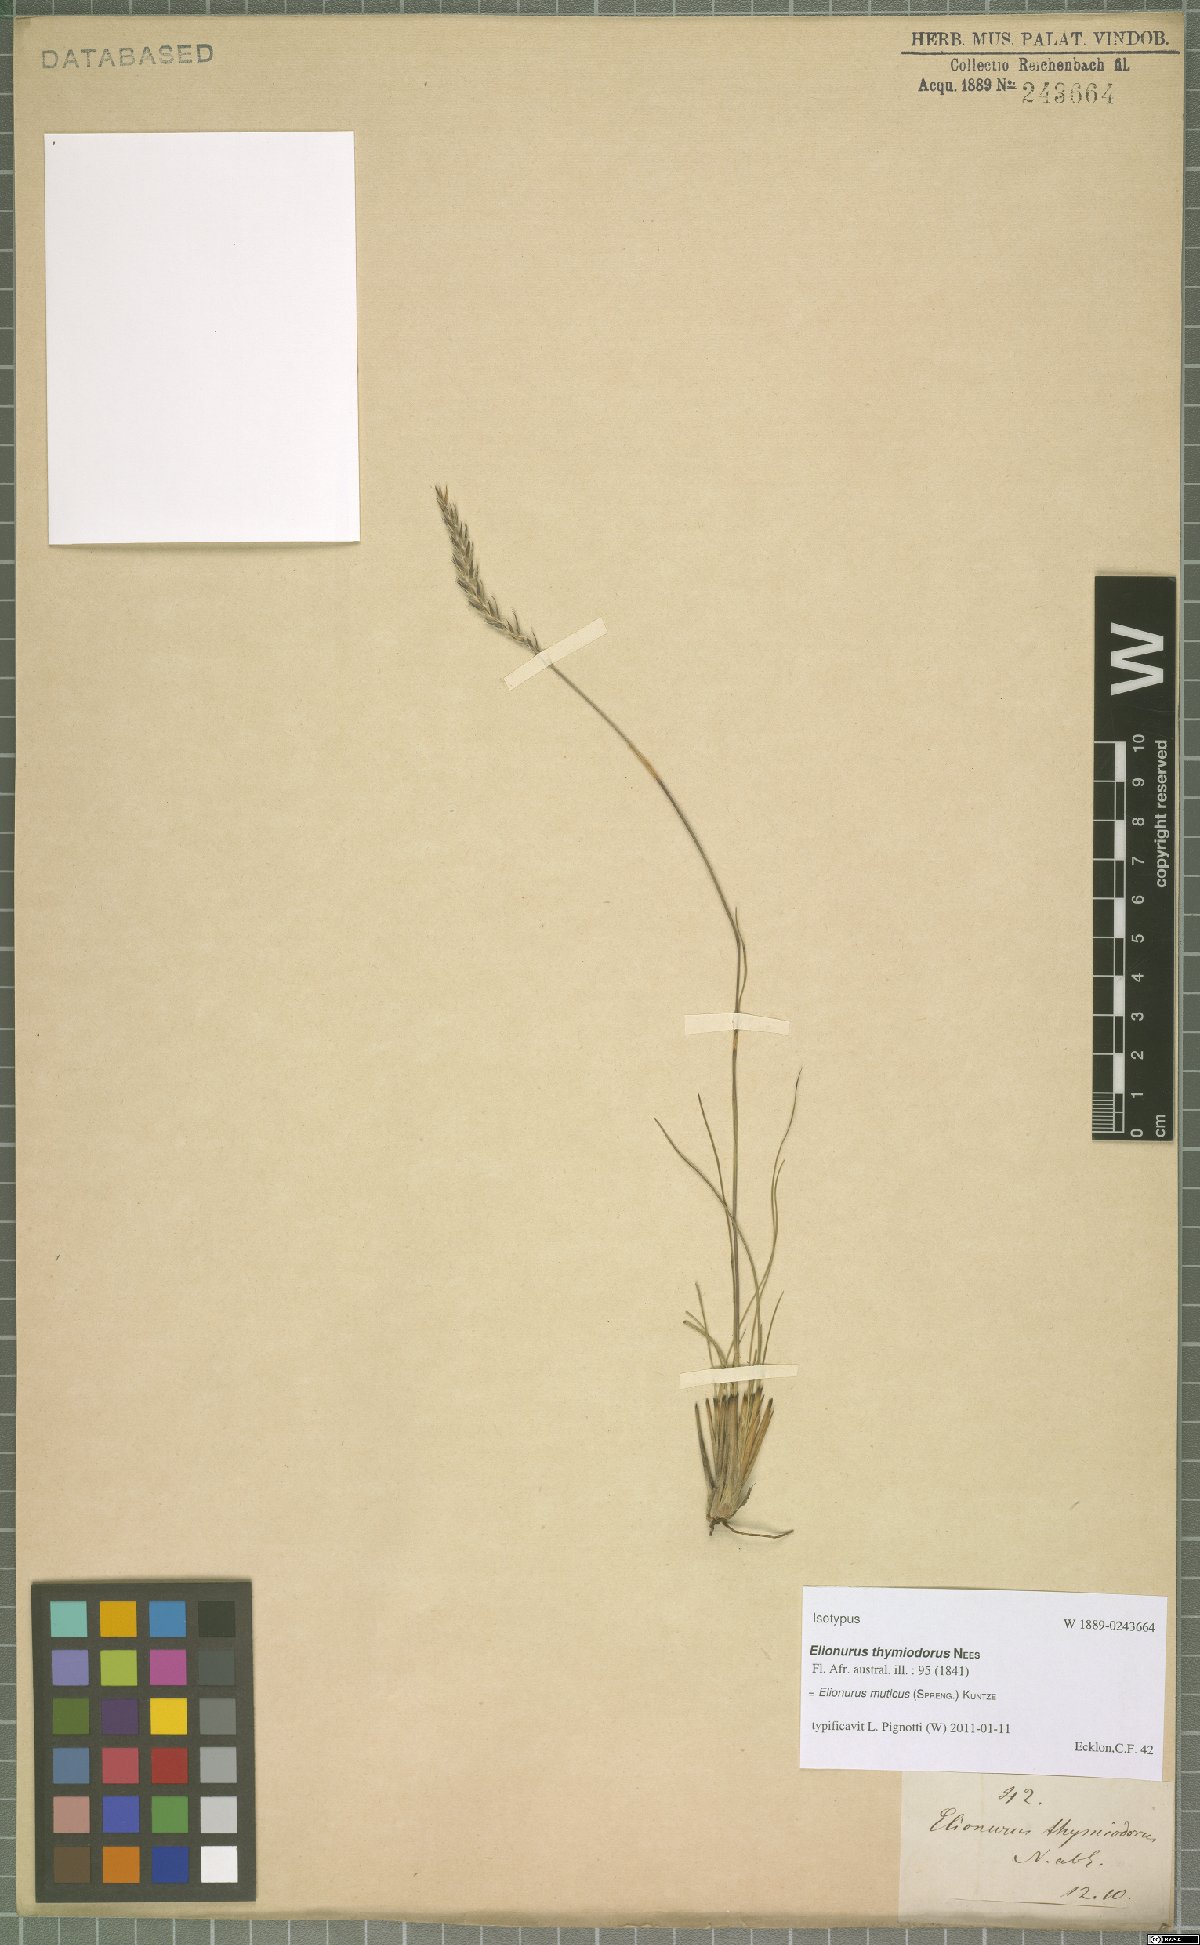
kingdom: Plantae
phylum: Tracheophyta
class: Liliopsida
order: Poales
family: Poaceae
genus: Elionurus
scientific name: Elionurus muticus
